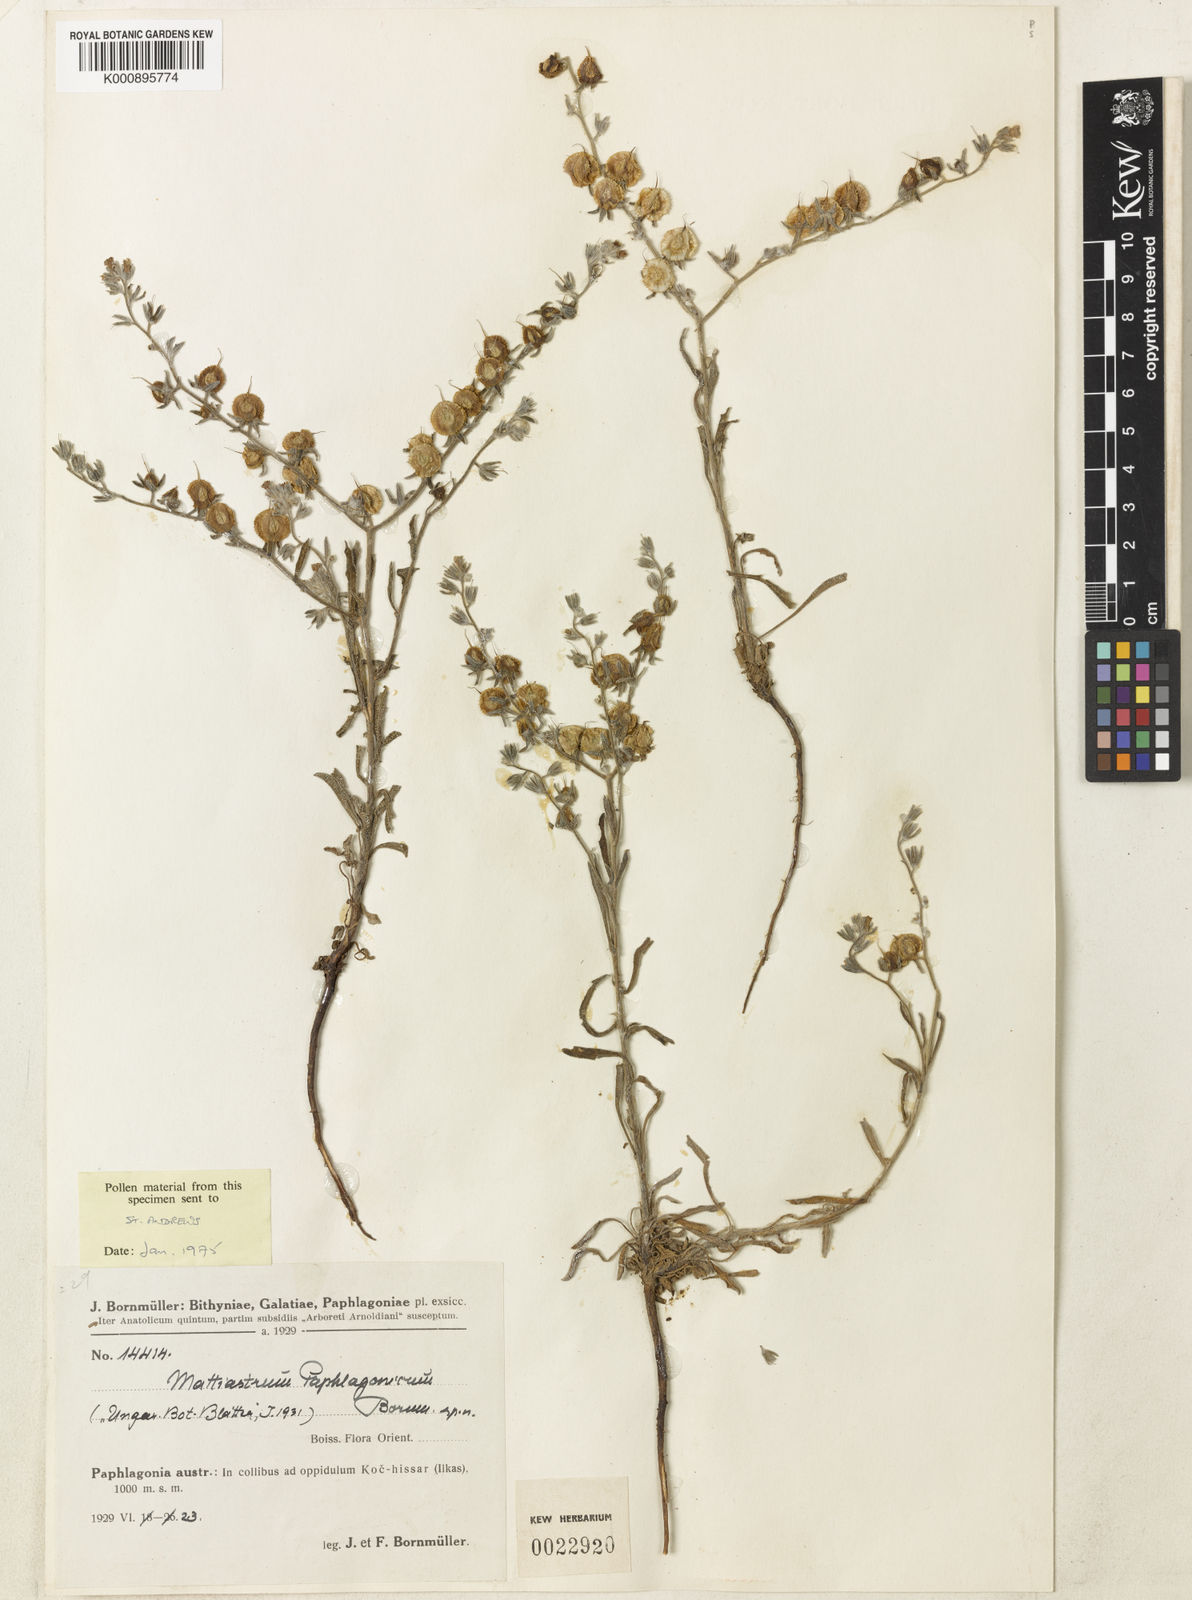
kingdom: Plantae
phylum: Tracheophyta
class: Magnoliopsida
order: Boraginales
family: Boraginaceae
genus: Paracaryum
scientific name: Paracaryum paphlagonicum
